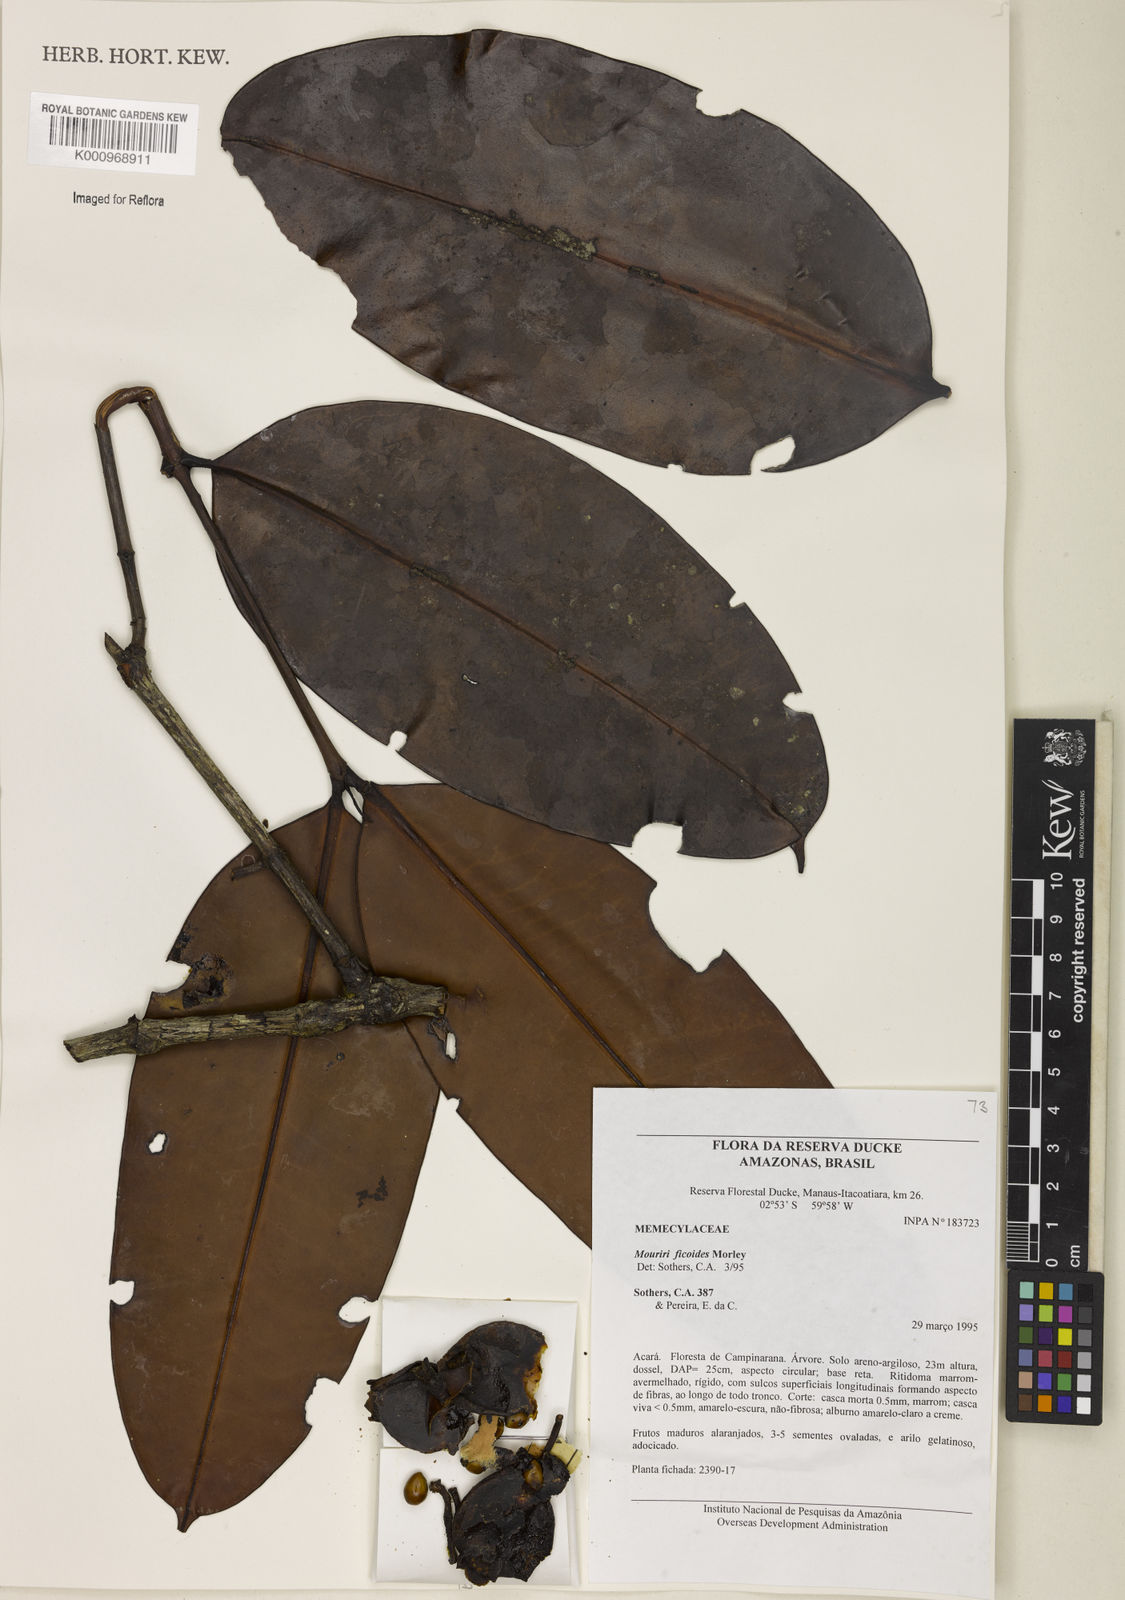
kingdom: Plantae
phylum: Tracheophyta
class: Magnoliopsida
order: Myrtales
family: Melastomataceae
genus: Mouriri
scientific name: Mouriri ficoides
